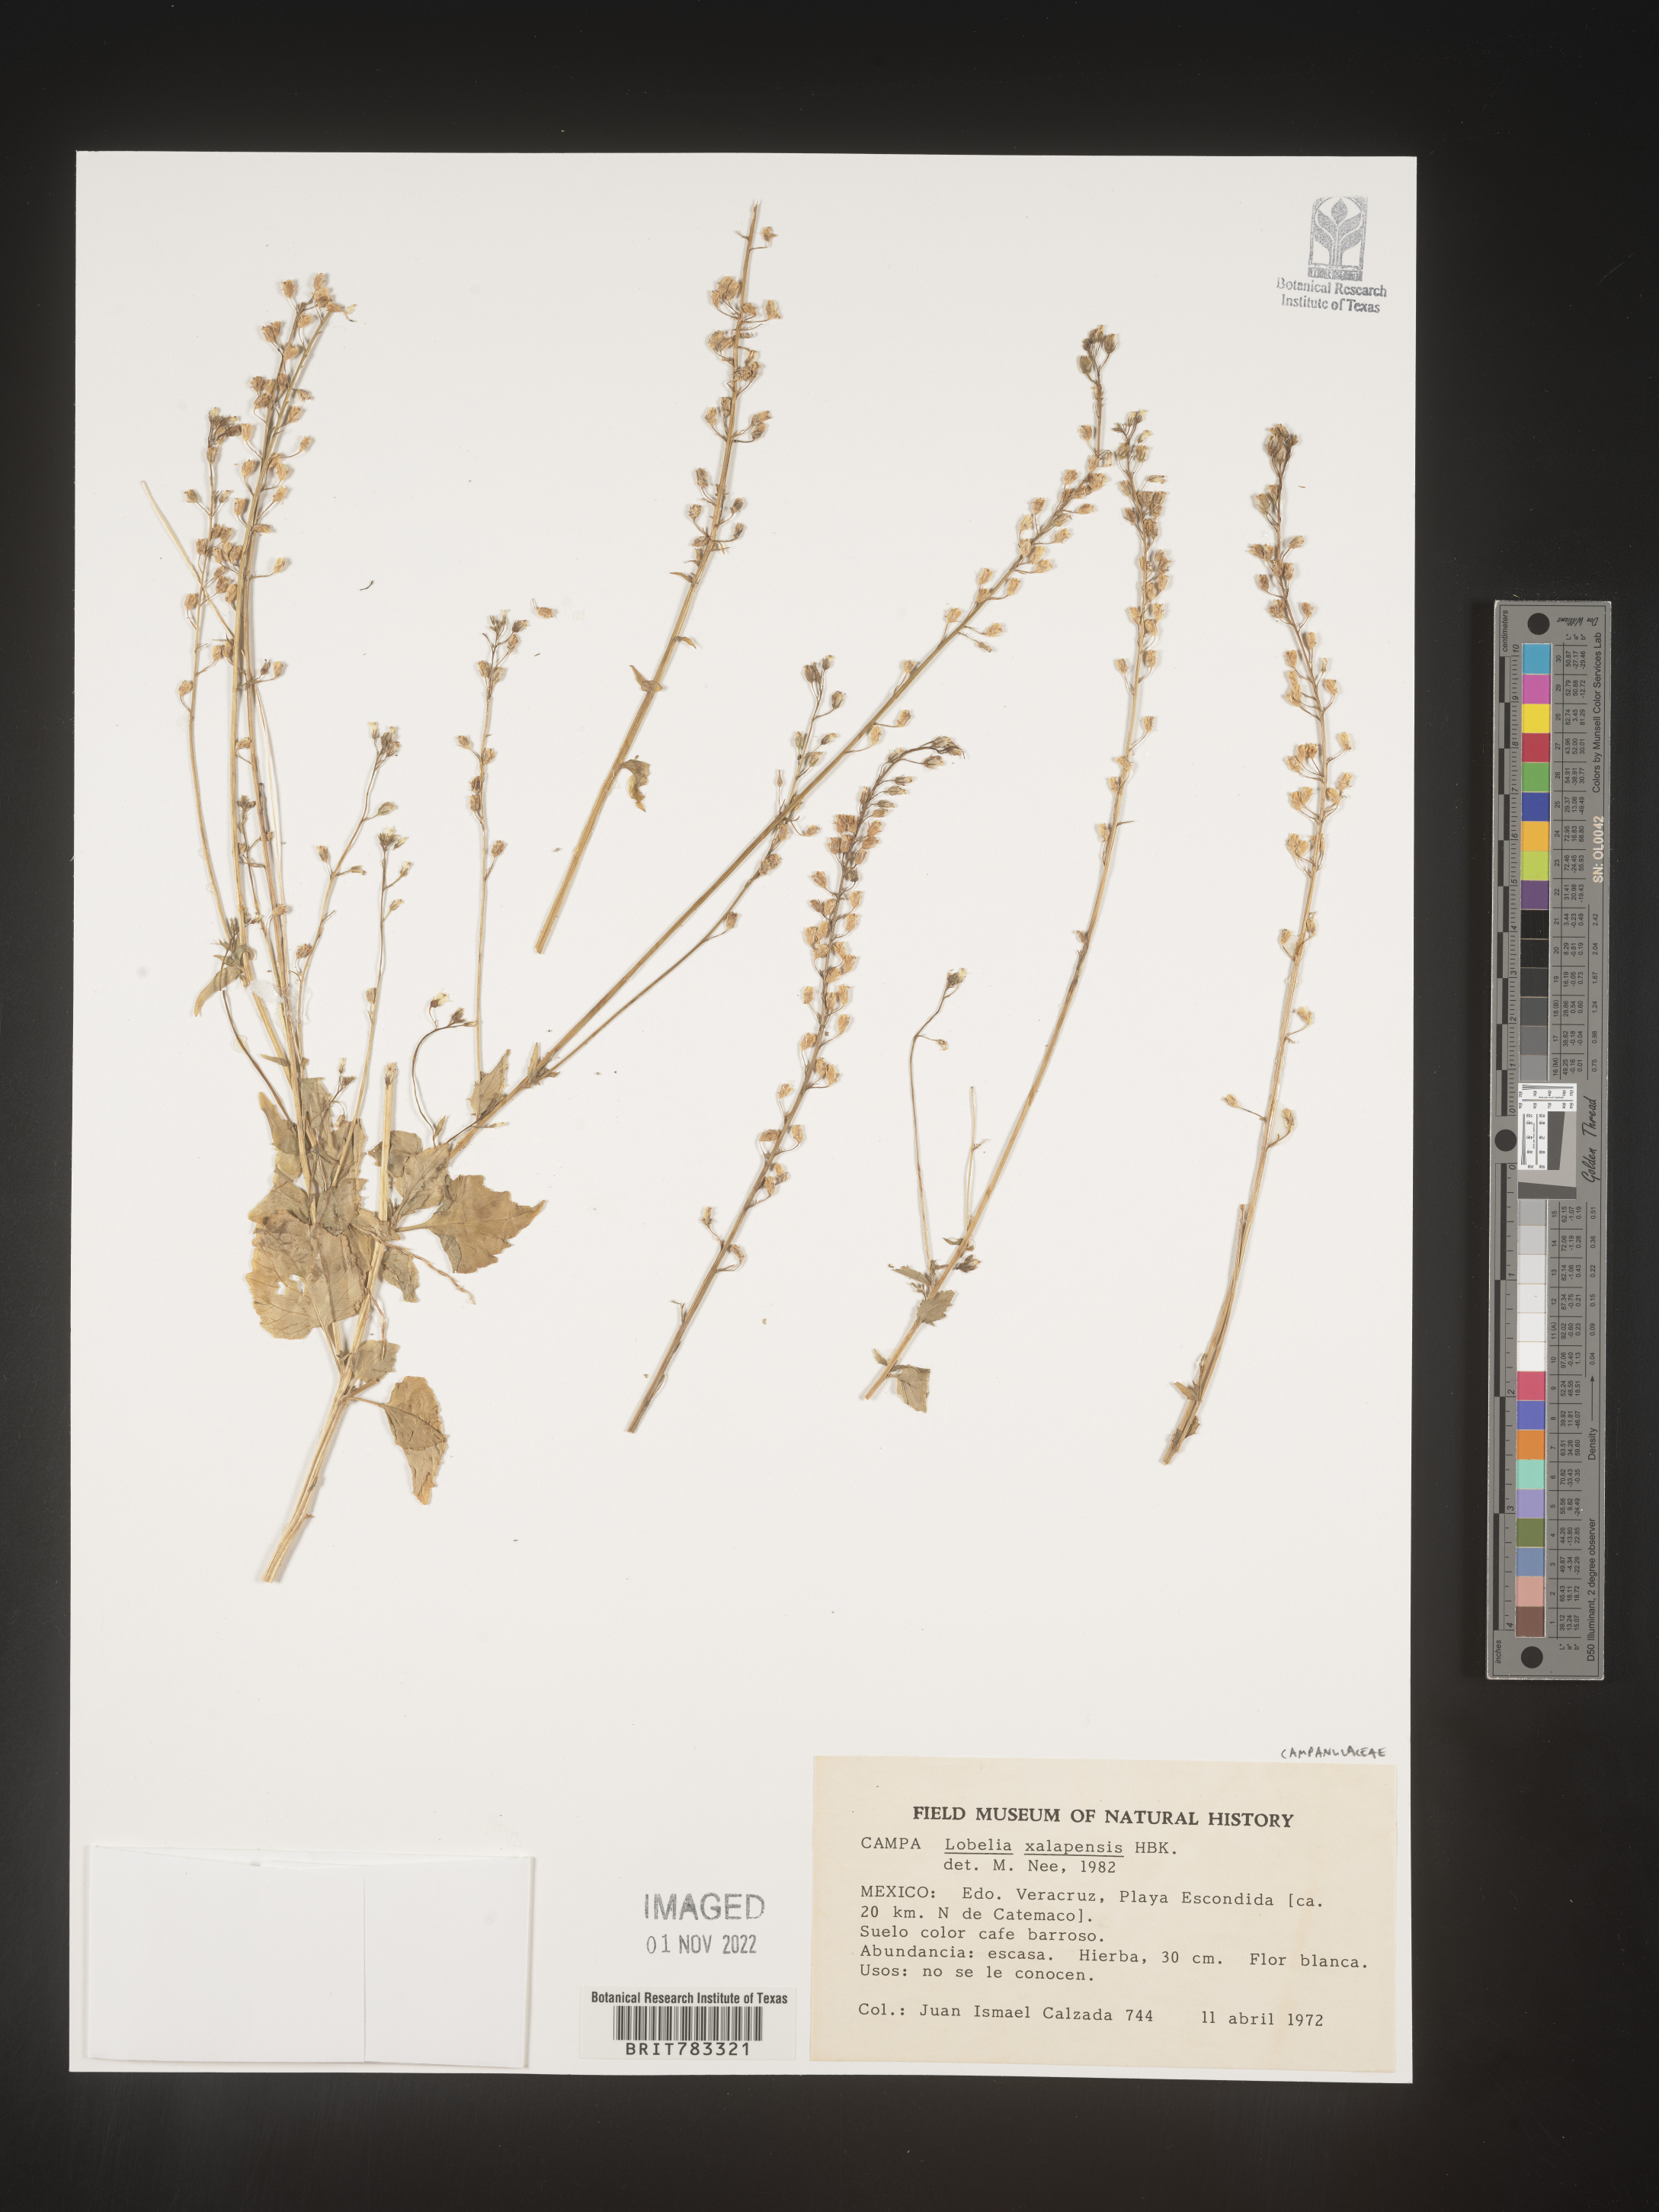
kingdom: Plantae
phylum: Tracheophyta
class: Magnoliopsida
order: Asterales
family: Campanulaceae
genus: Lobelia
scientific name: Lobelia
